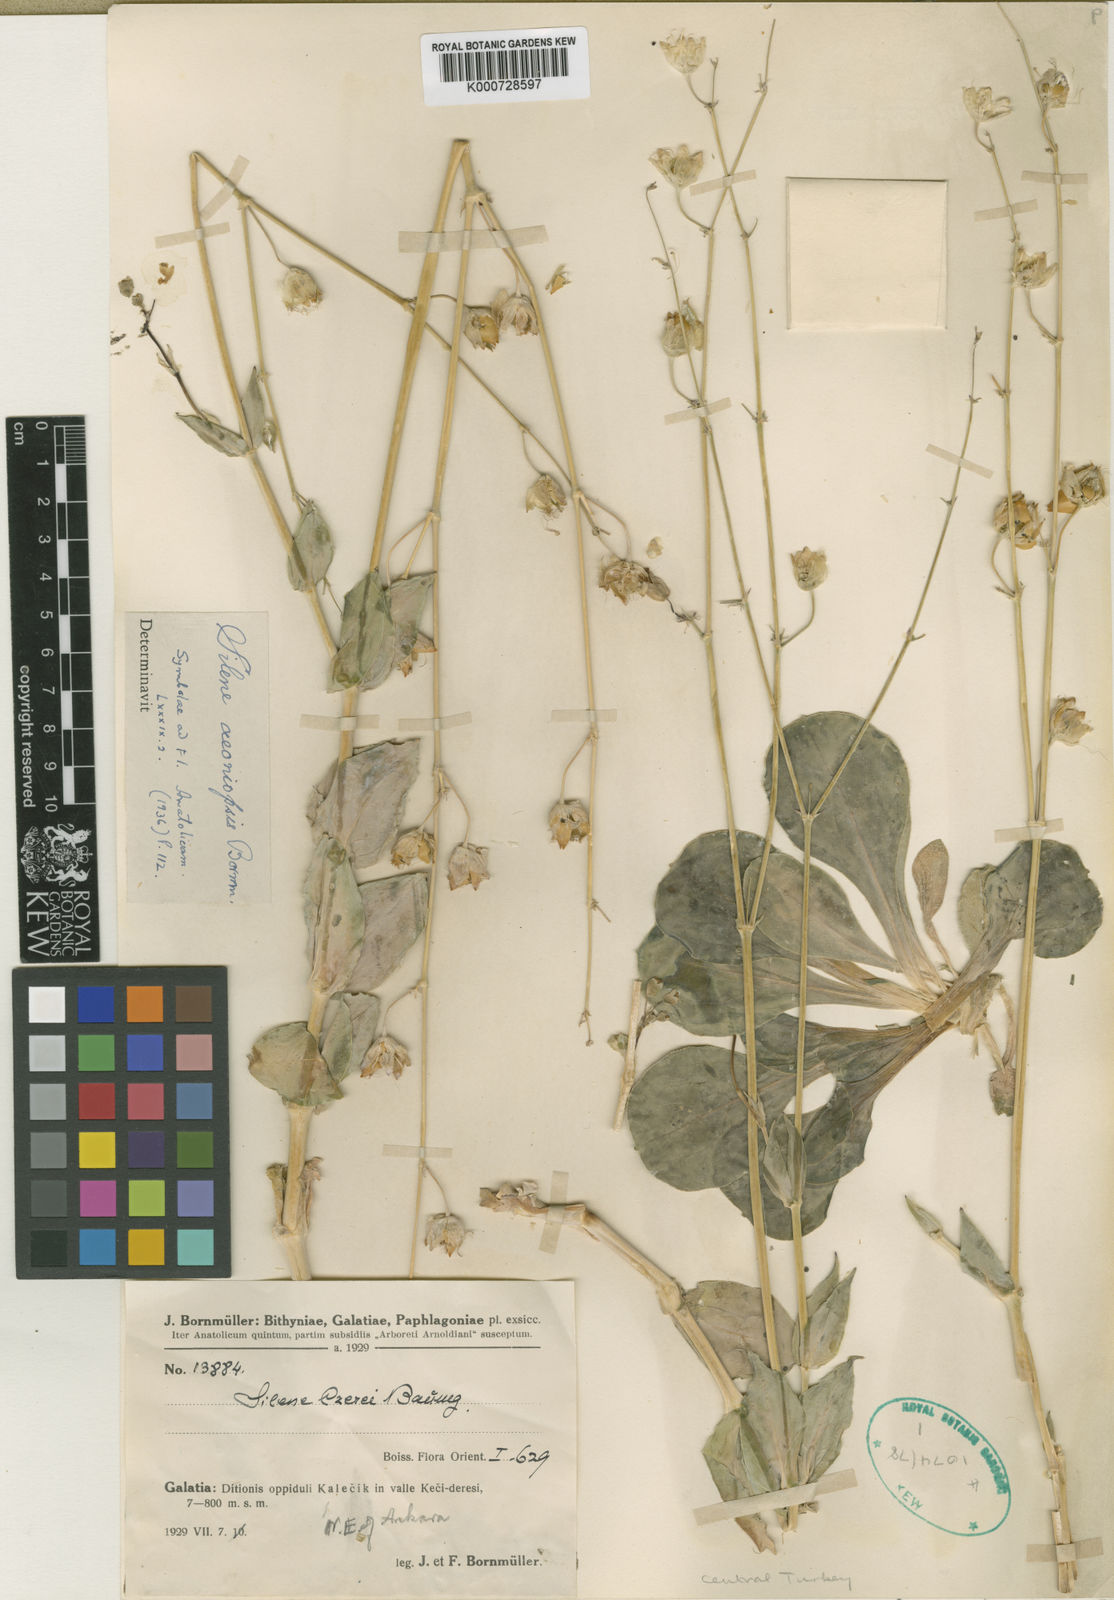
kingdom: Plantae
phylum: Tracheophyta
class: Magnoliopsida
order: Caryophyllales
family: Caryophyllaceae
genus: Silene
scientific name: Silene csereii
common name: Balkan catchfly
